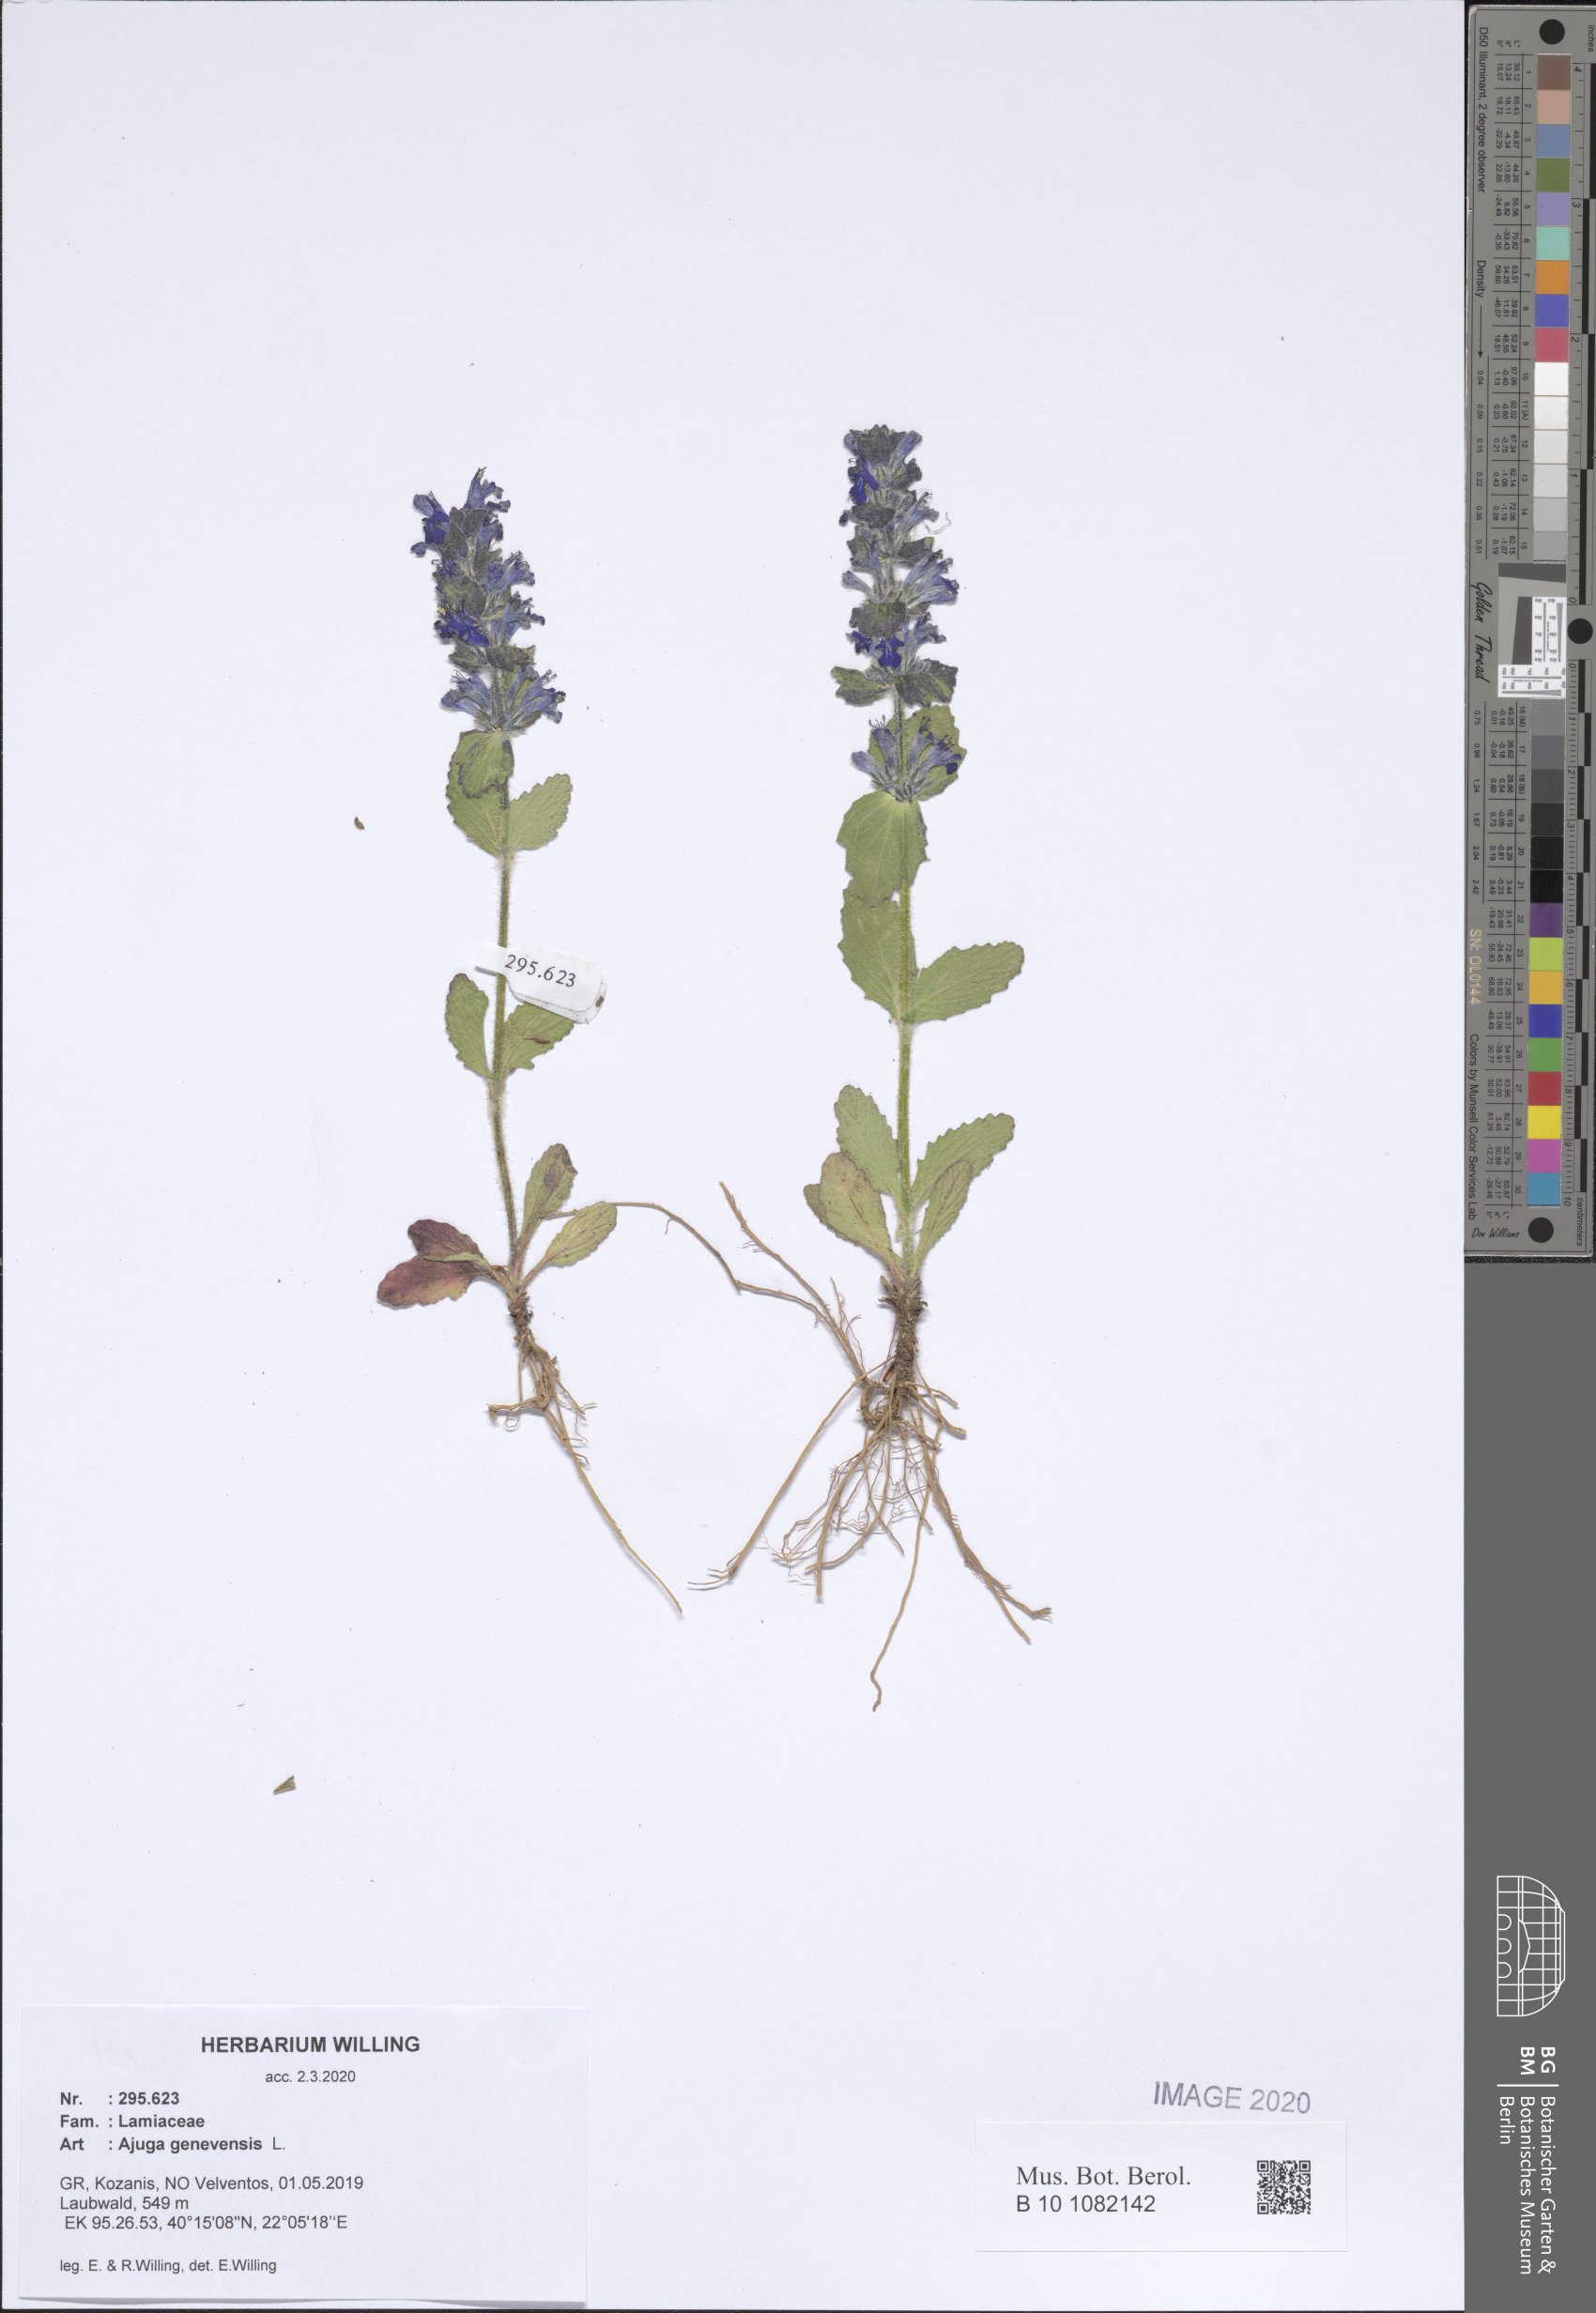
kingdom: Plantae
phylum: Tracheophyta
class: Magnoliopsida
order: Lamiales
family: Lamiaceae
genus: Ajuga
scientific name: Ajuga genevensis
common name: Blue bugle
